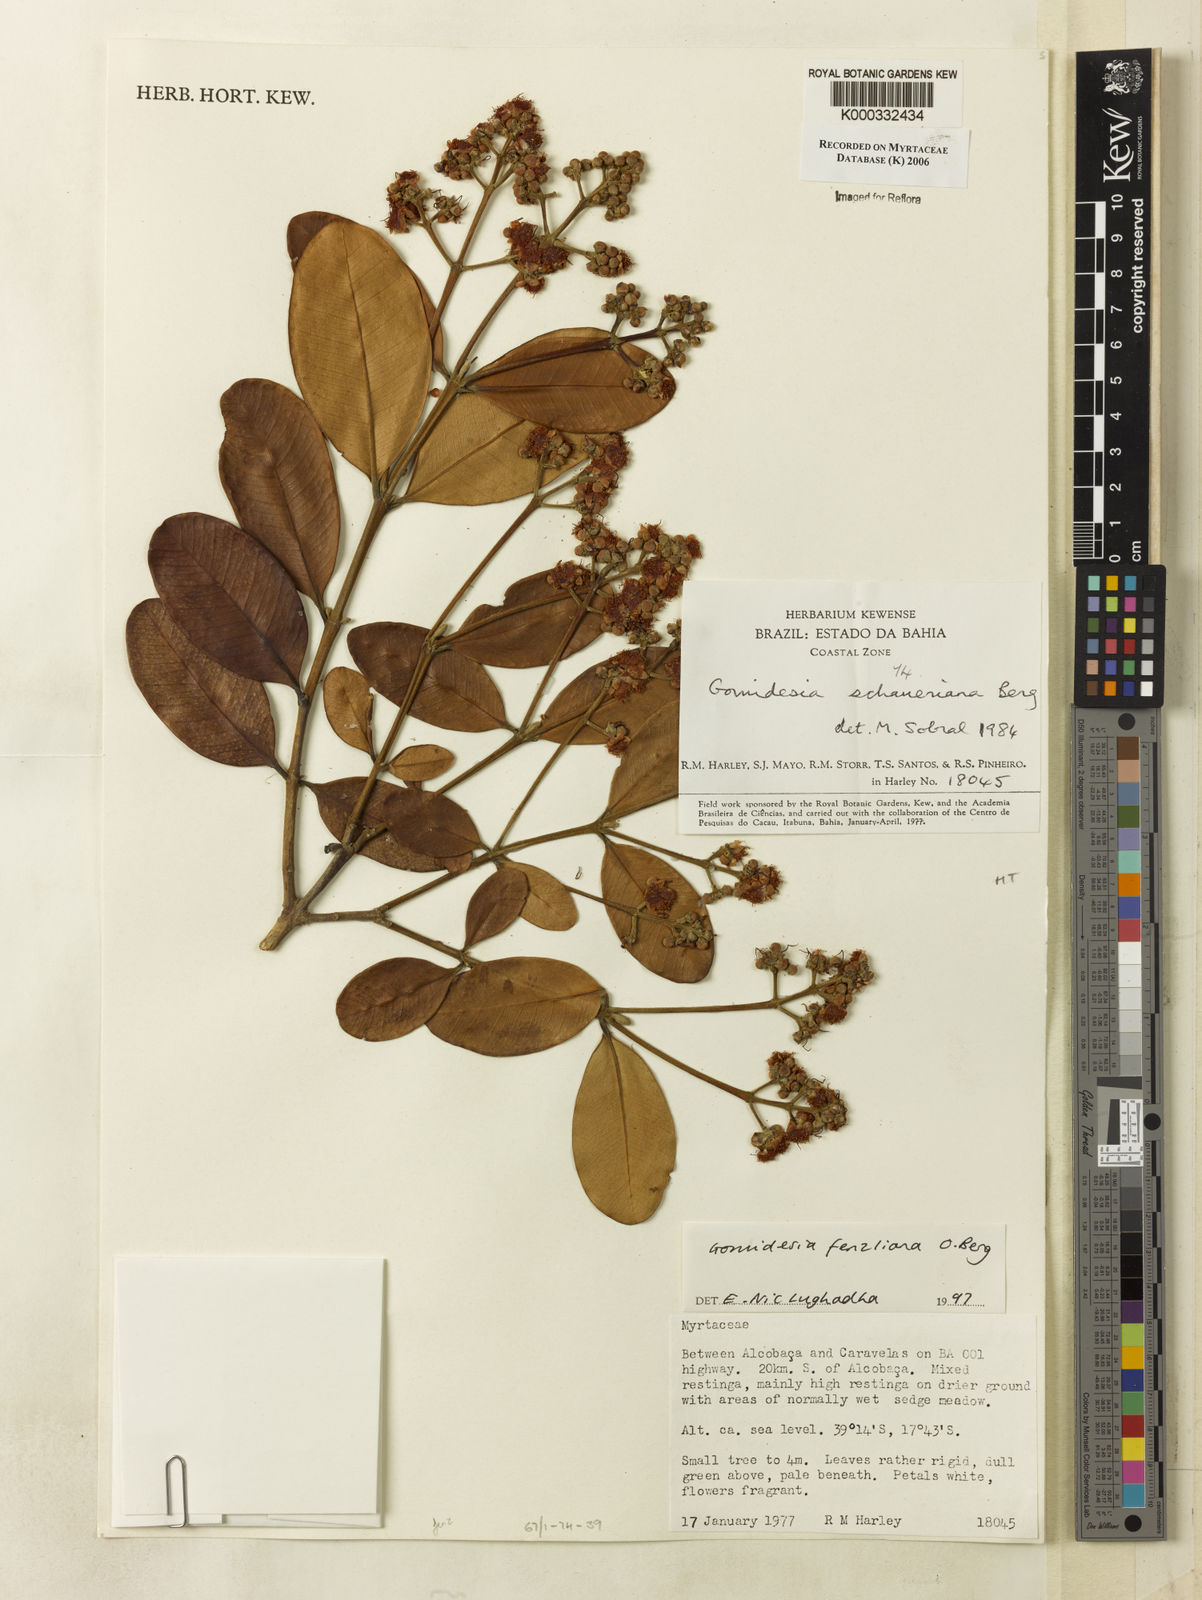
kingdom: Plantae
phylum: Tracheophyta
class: Magnoliopsida
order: Myrtales
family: Myrtaceae
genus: Myrcia
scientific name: Myrcia ilheosensis
